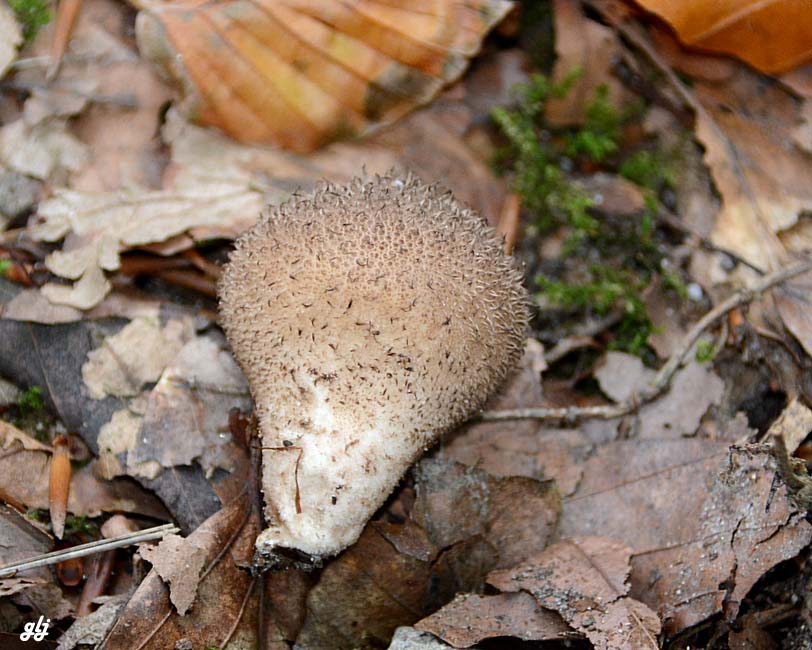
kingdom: Fungi
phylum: Basidiomycota
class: Agaricomycetes
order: Agaricales
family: Lycoperdaceae
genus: Lycoperdon
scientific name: Lycoperdon nigrescens
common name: sortagtig støvbold
